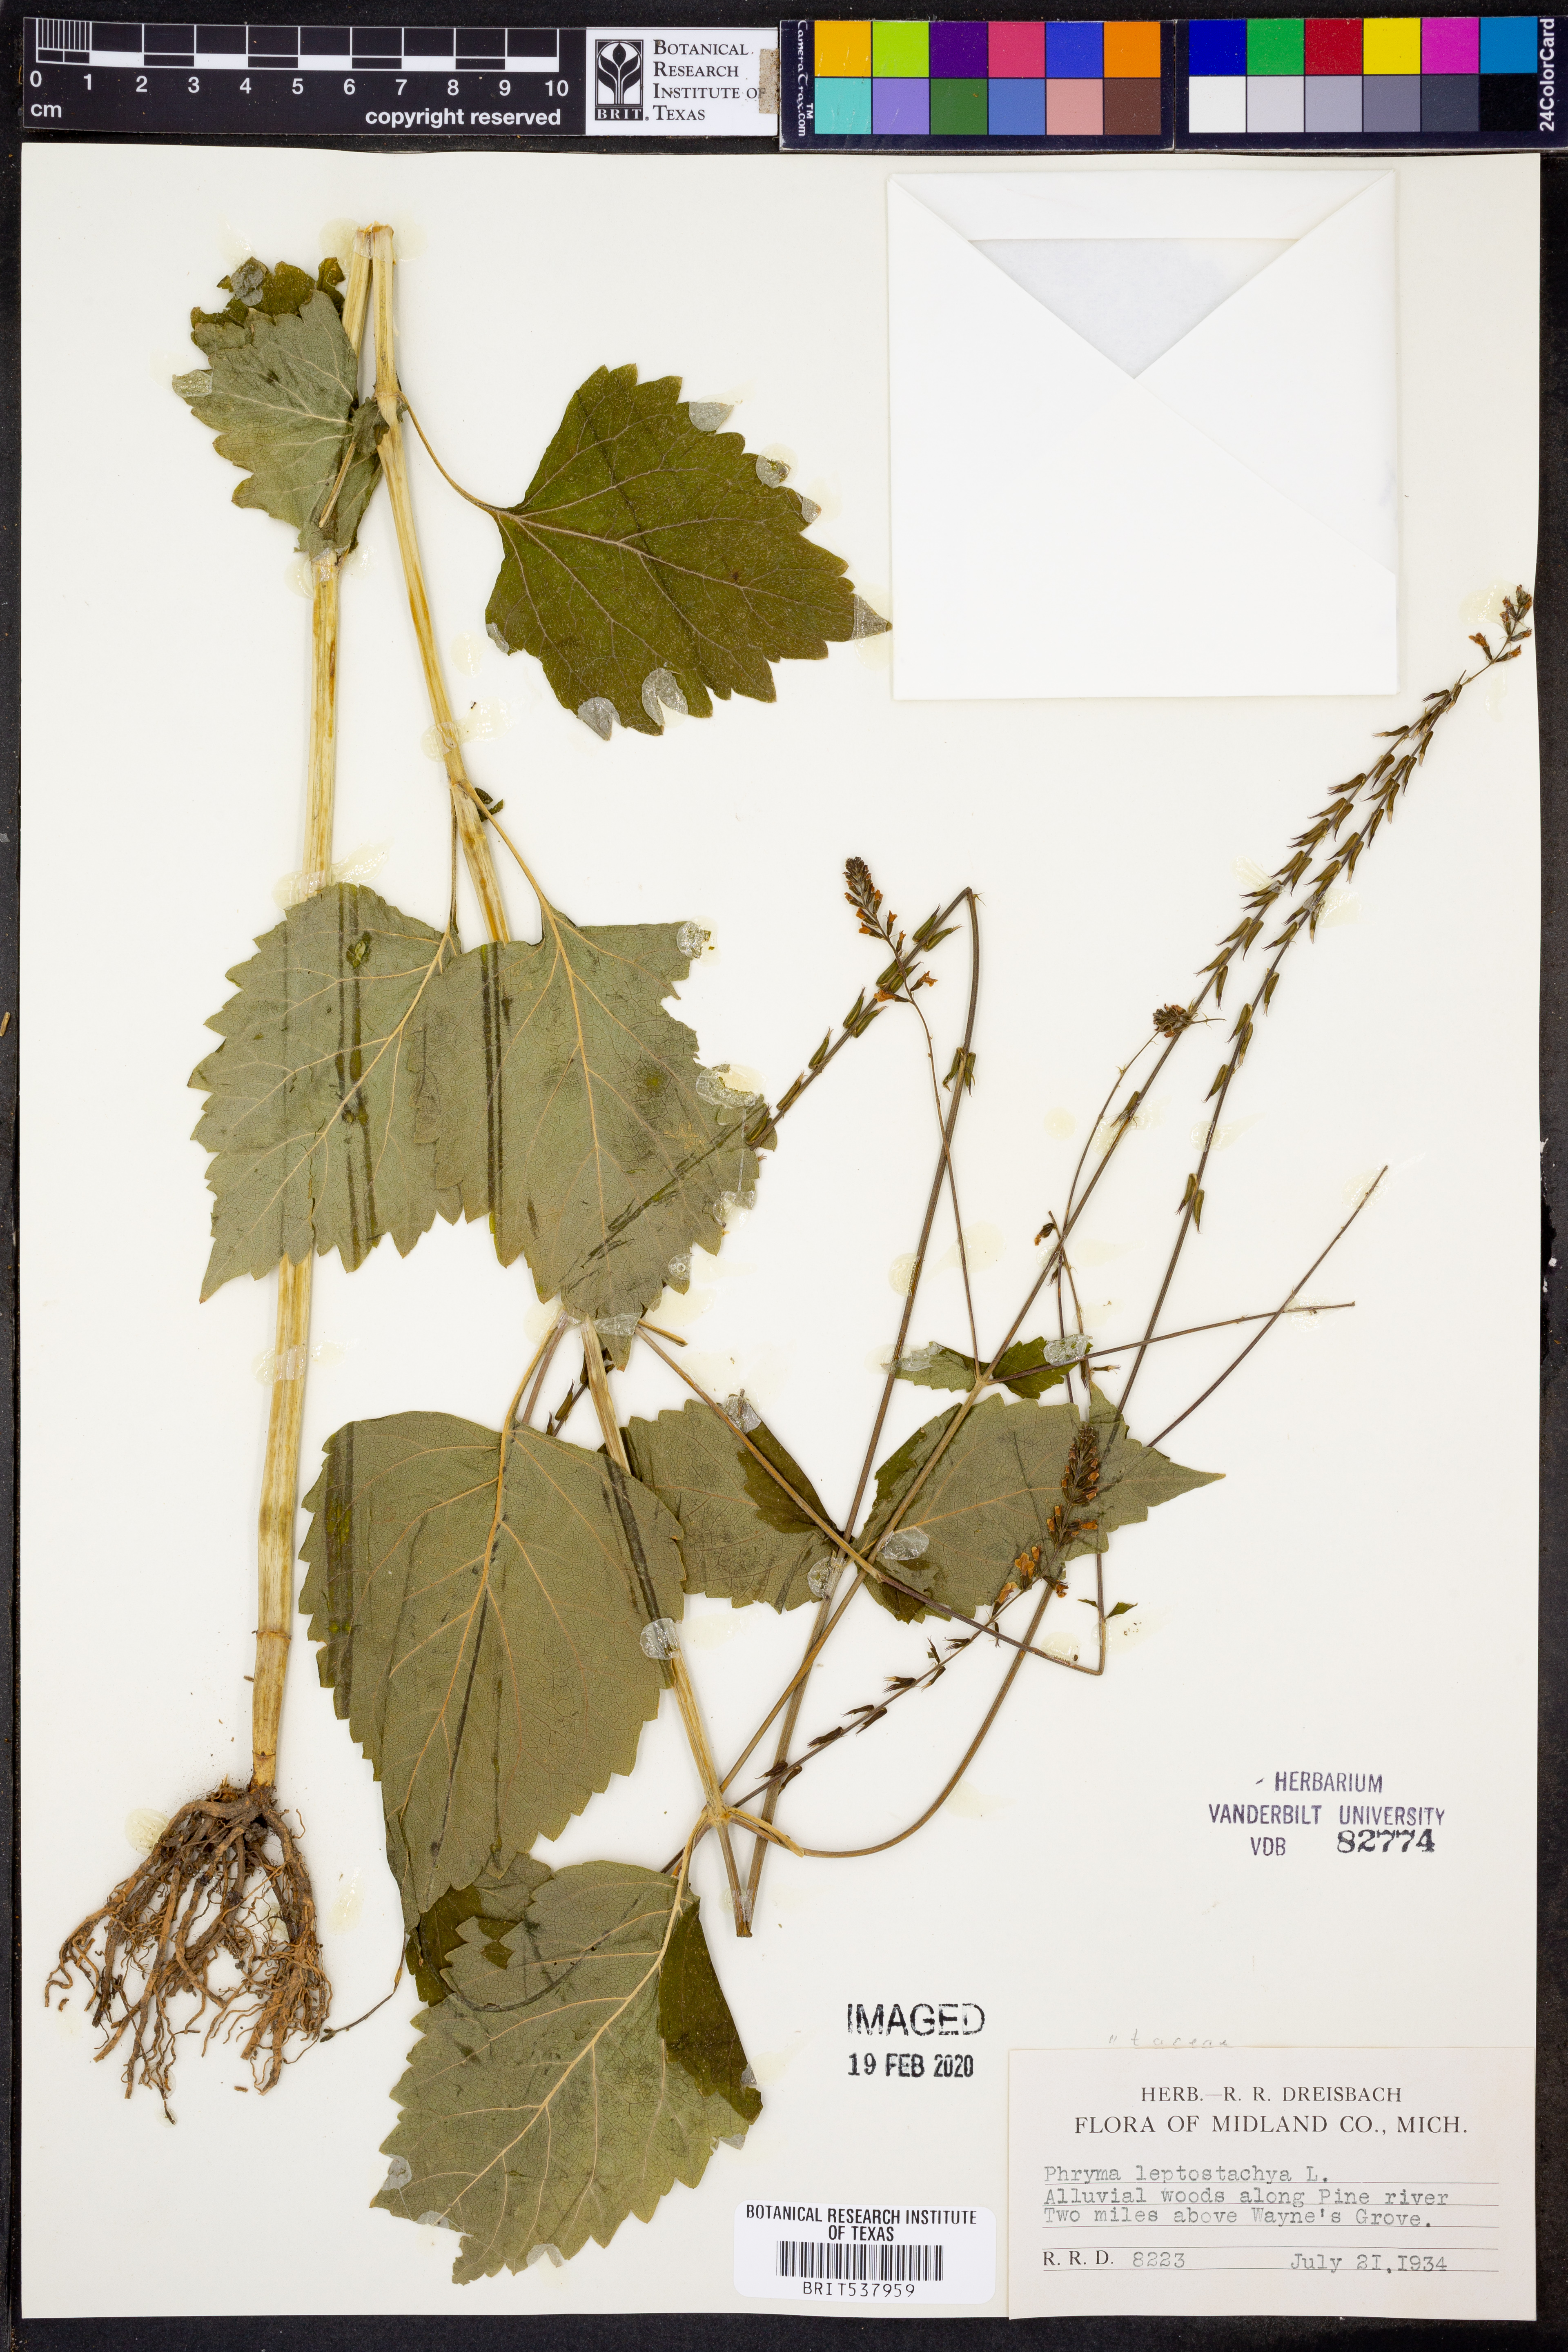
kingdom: Plantae
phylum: Tracheophyta
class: Magnoliopsida
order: Lamiales
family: Phrymaceae
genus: Phryma
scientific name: Phryma leptostachya
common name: American lopseed
